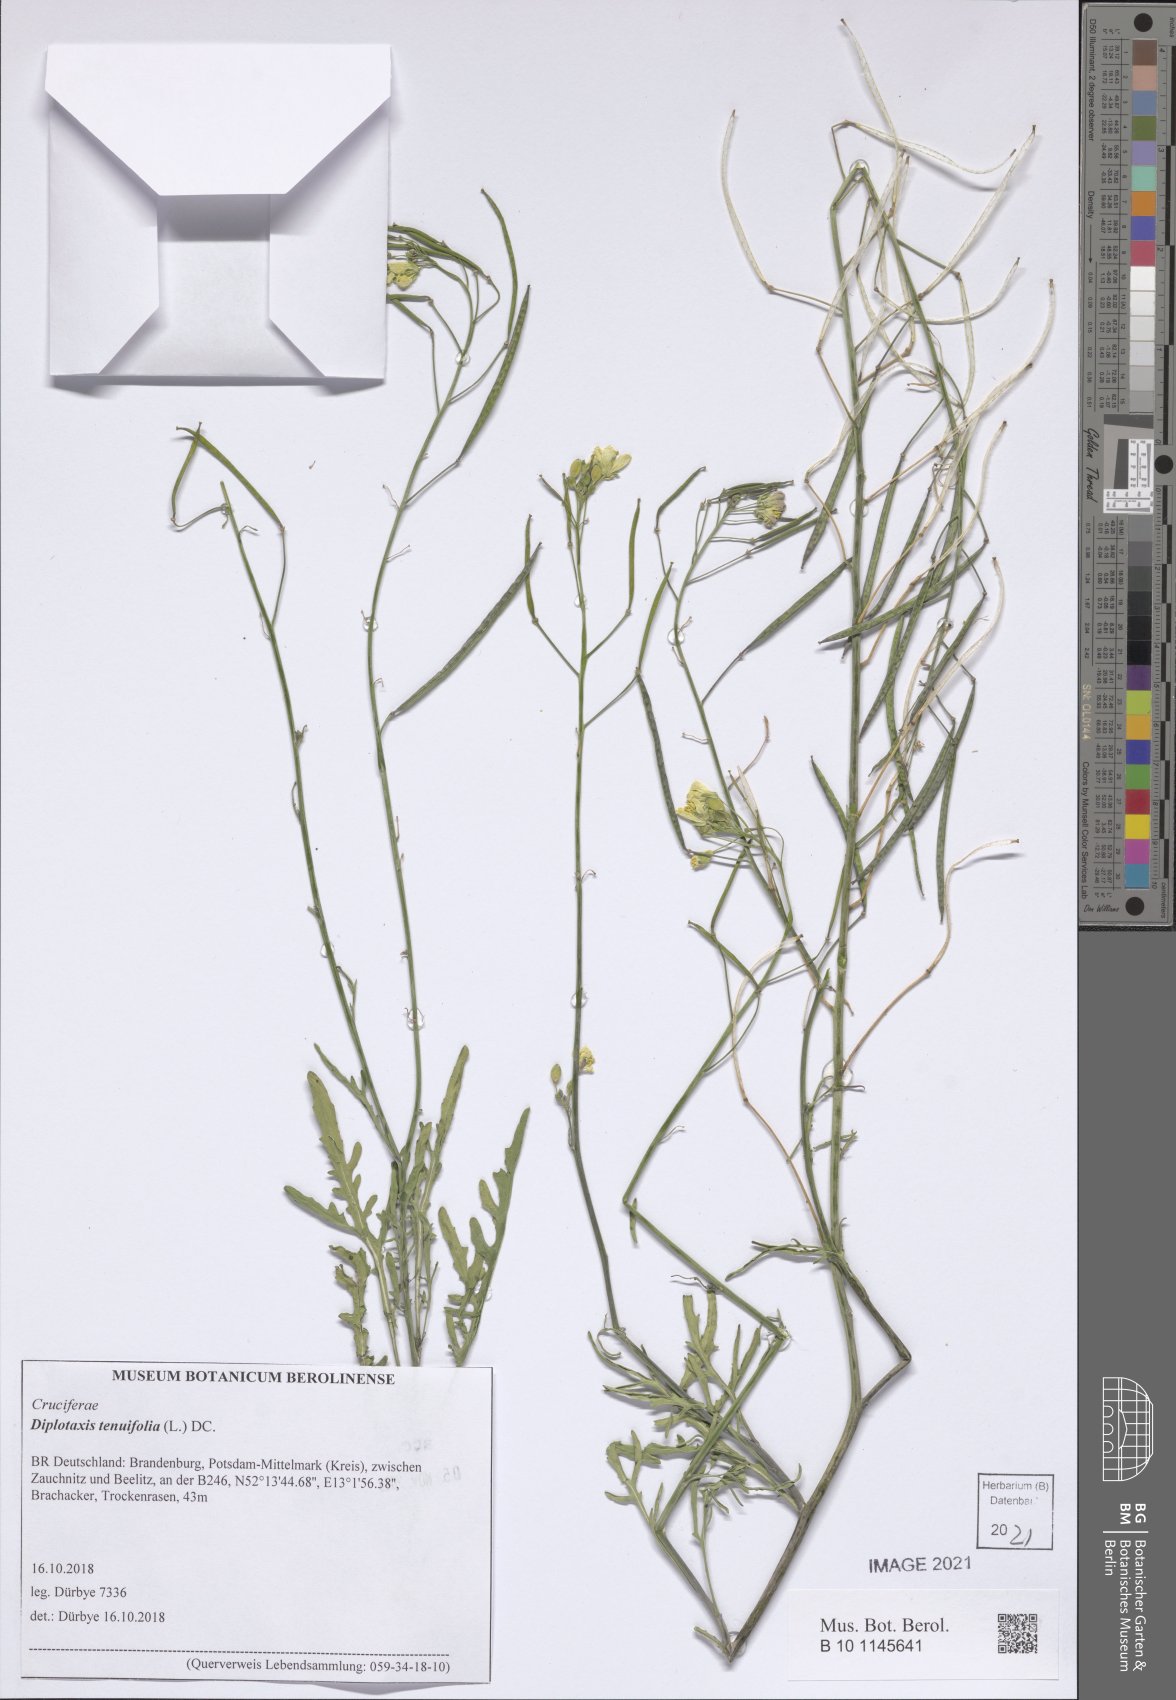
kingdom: Plantae
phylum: Tracheophyta
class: Magnoliopsida
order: Brassicales
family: Brassicaceae
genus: Diplotaxis
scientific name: Diplotaxis tenuifolia
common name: Perennial wall-rocket
